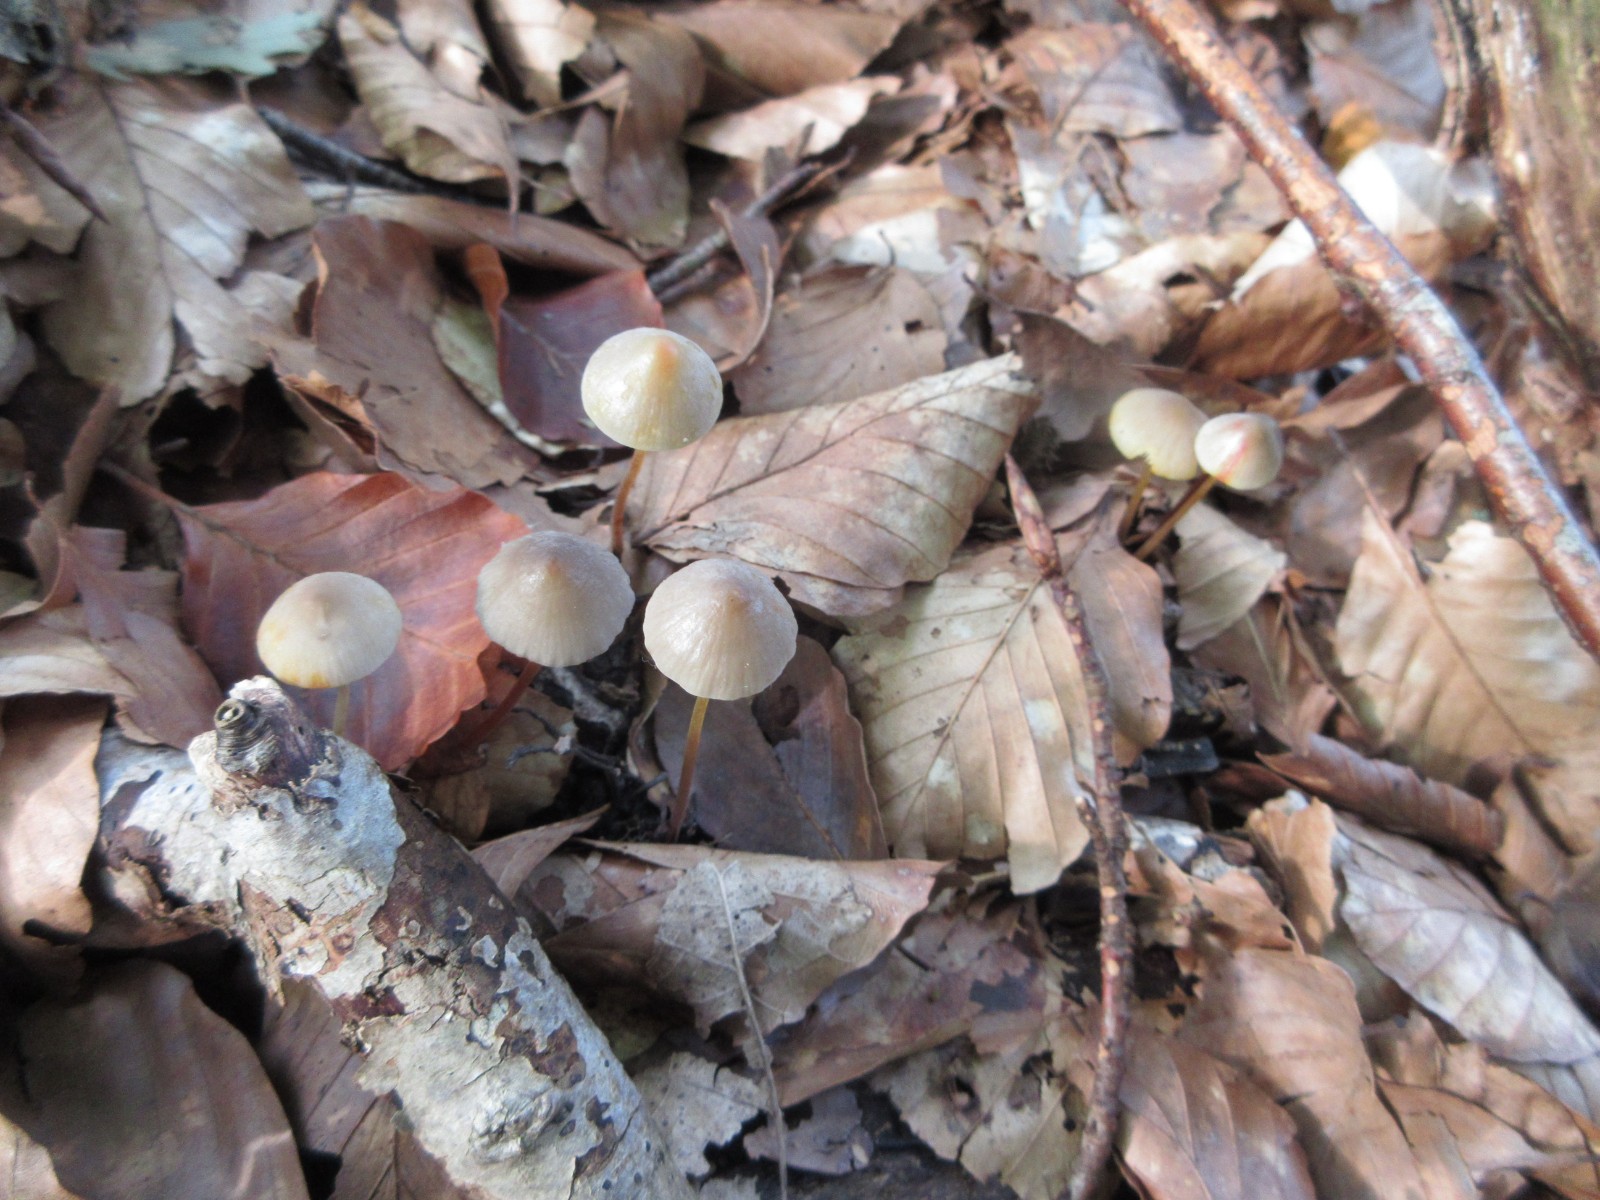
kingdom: Fungi
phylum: Basidiomycota
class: Agaricomycetes
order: Agaricales
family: Mycenaceae
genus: Mycena
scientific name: Mycena crocata
